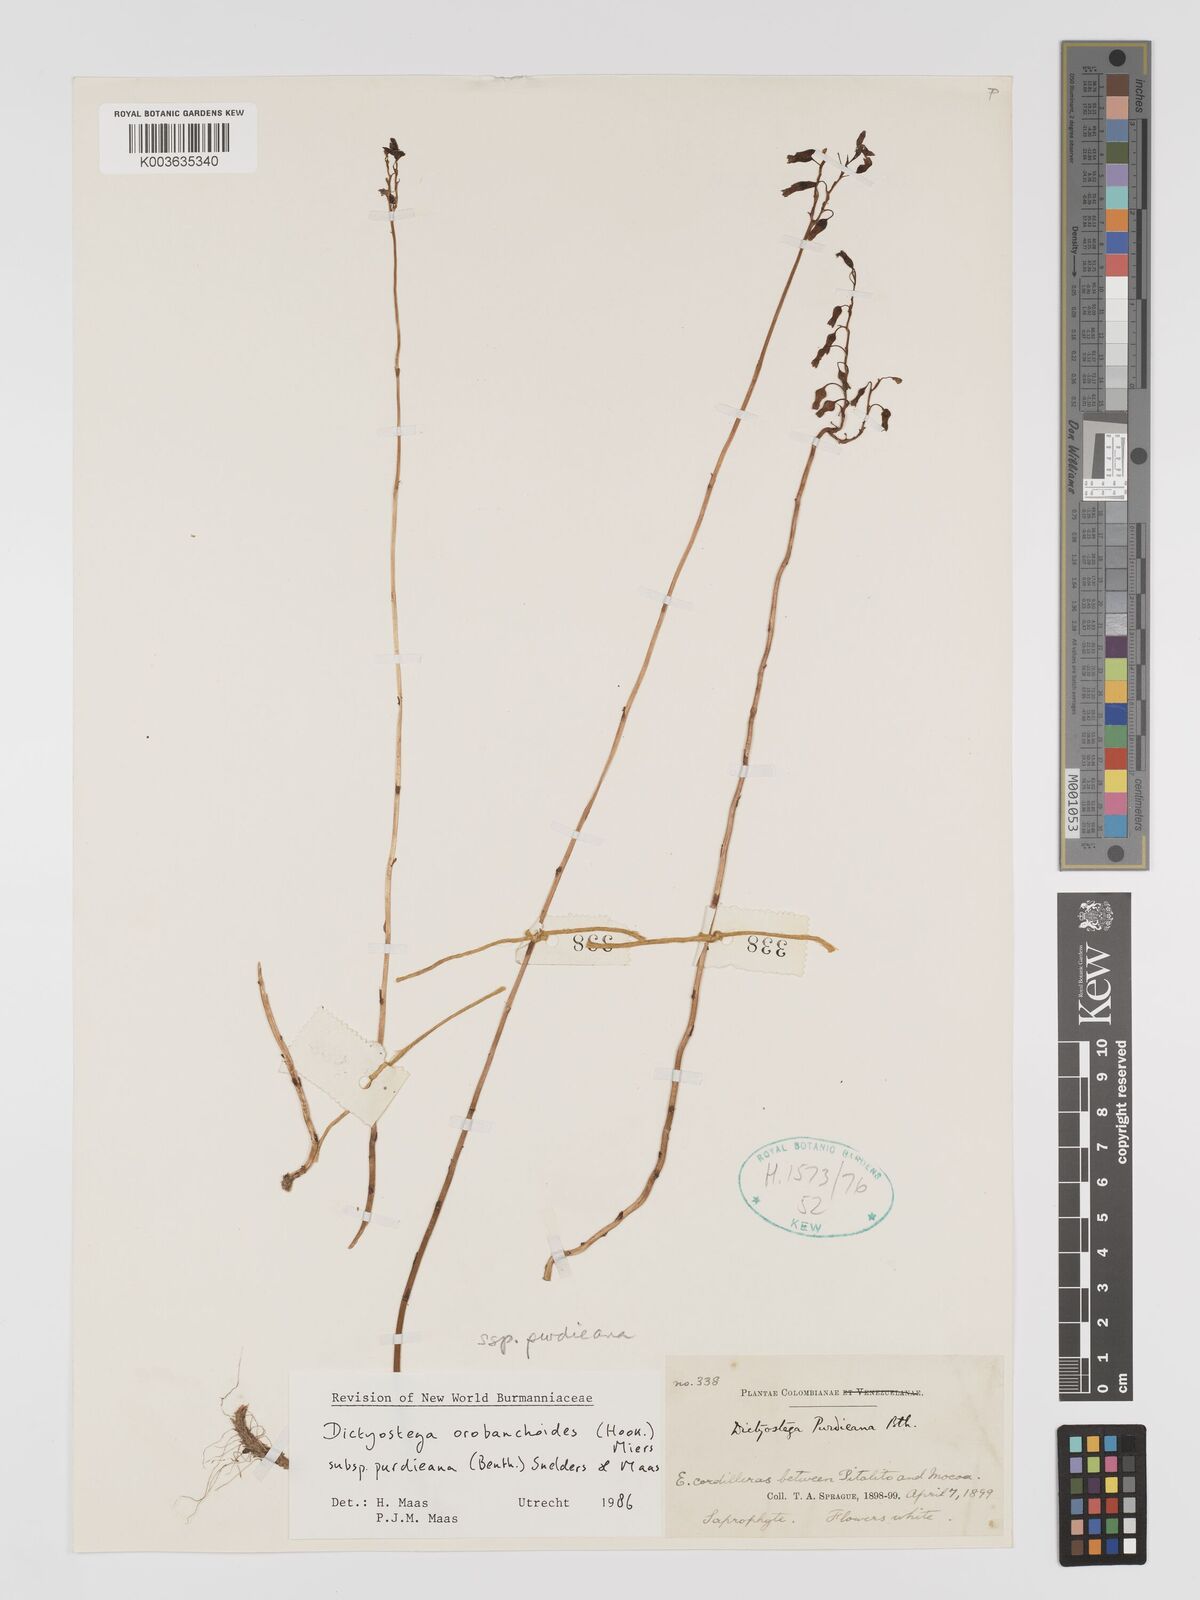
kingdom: Plantae
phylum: Tracheophyta
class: Liliopsida
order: Dioscoreales
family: Burmanniaceae
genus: Dictyostega
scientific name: Dictyostega orobanchoides
